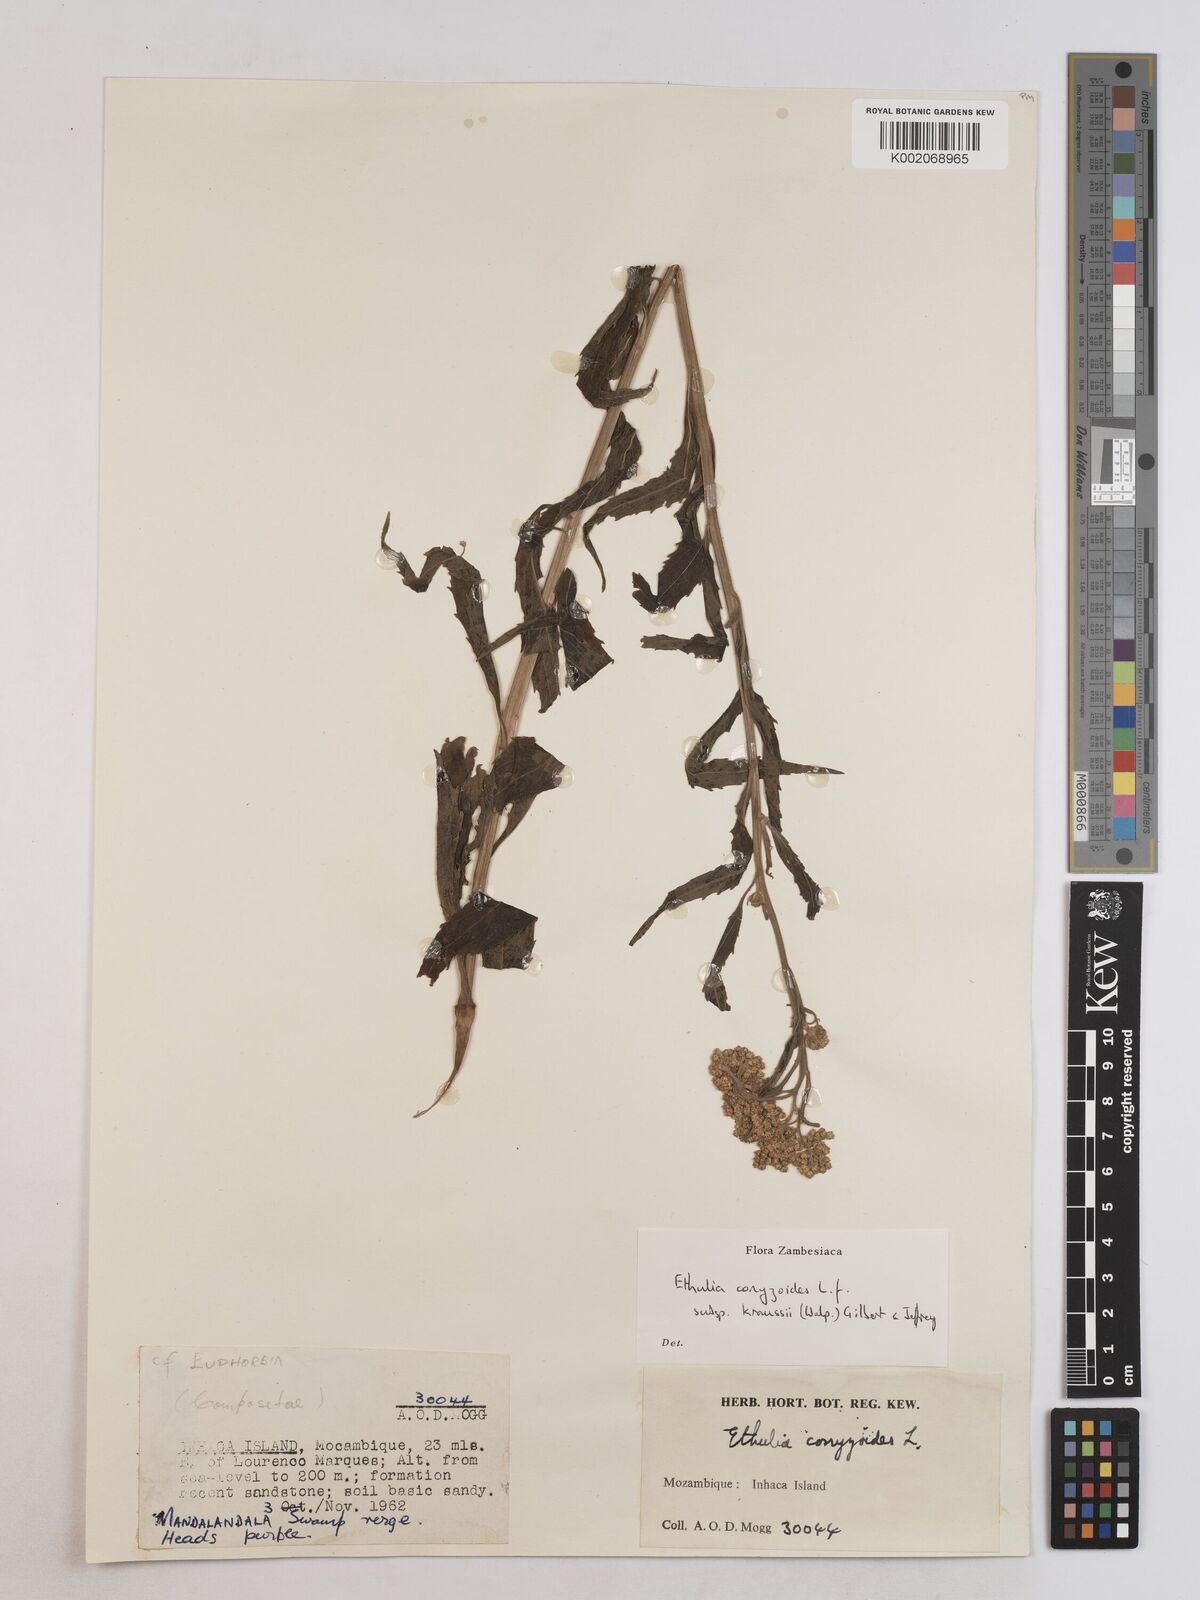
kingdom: Plantae
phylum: Tracheophyta
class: Magnoliopsida
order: Asterales
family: Asteraceae
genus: Ethulia
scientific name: Ethulia conyzoides
